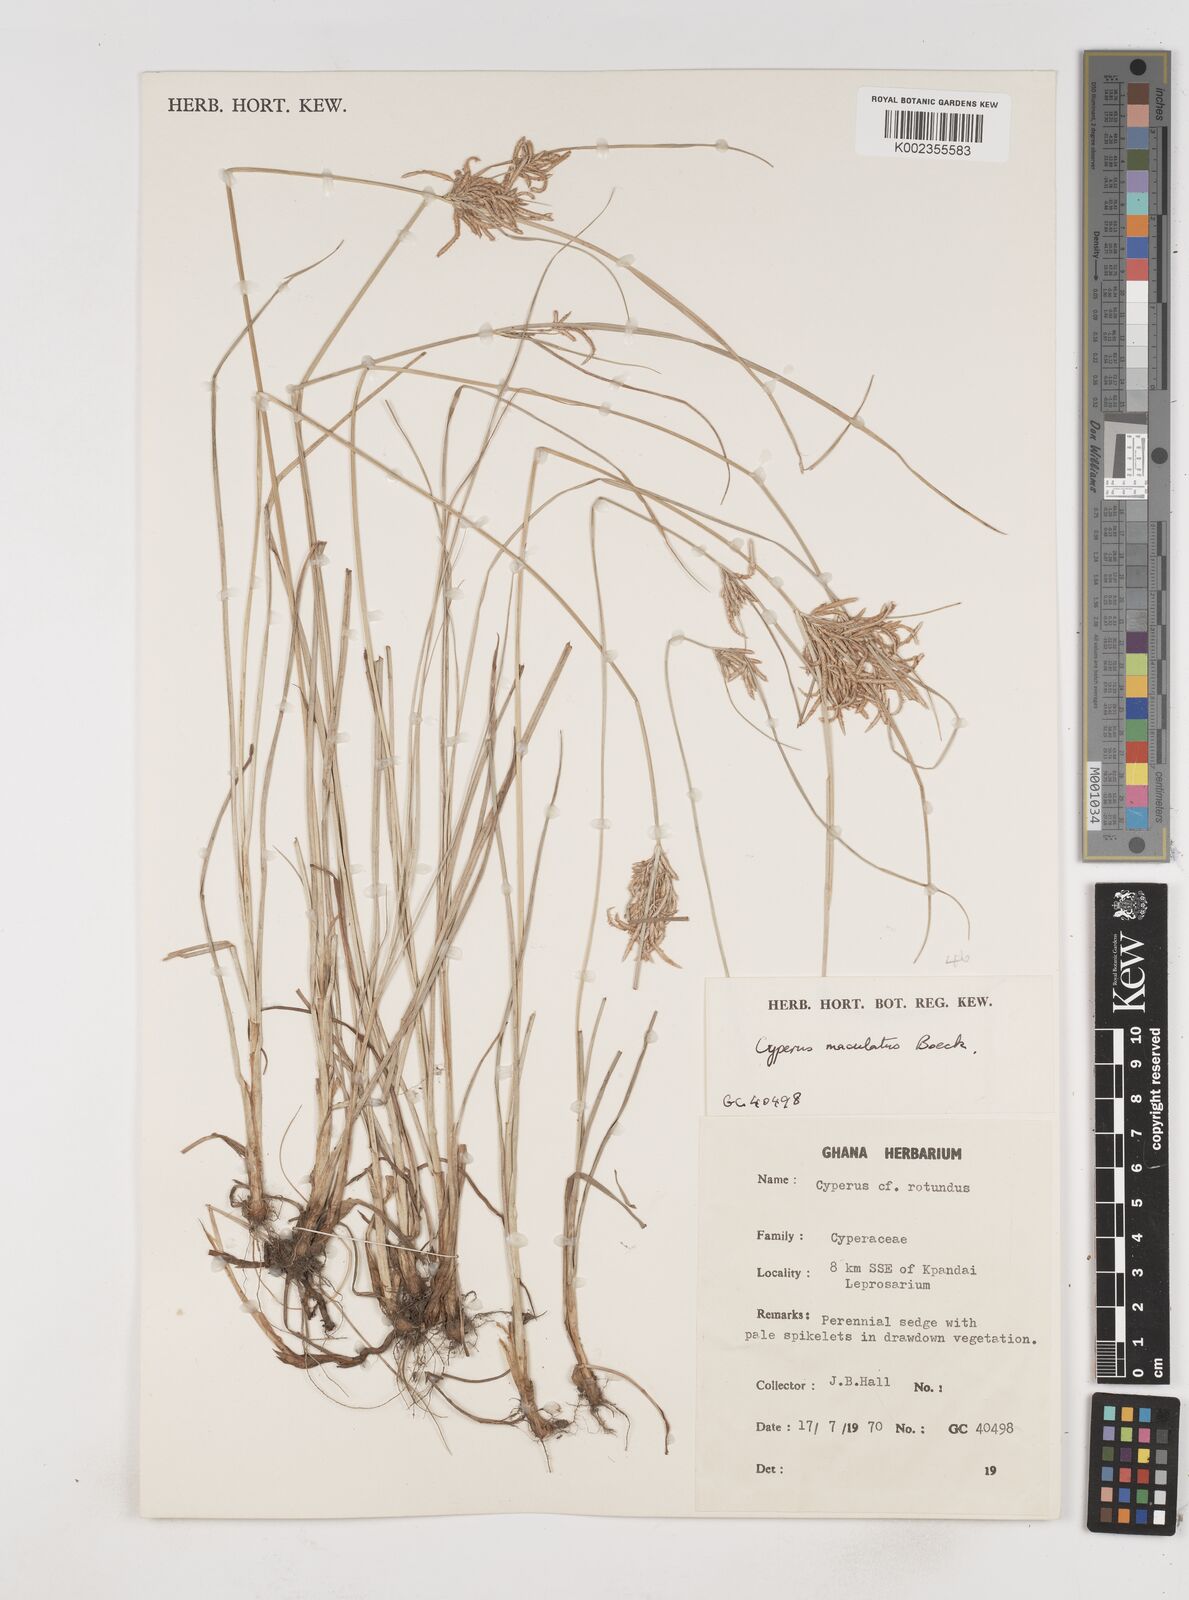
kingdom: Plantae
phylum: Tracheophyta
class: Liliopsida
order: Poales
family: Cyperaceae
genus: Cyperus
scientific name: Cyperus maculatus
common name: Maculated sedge
